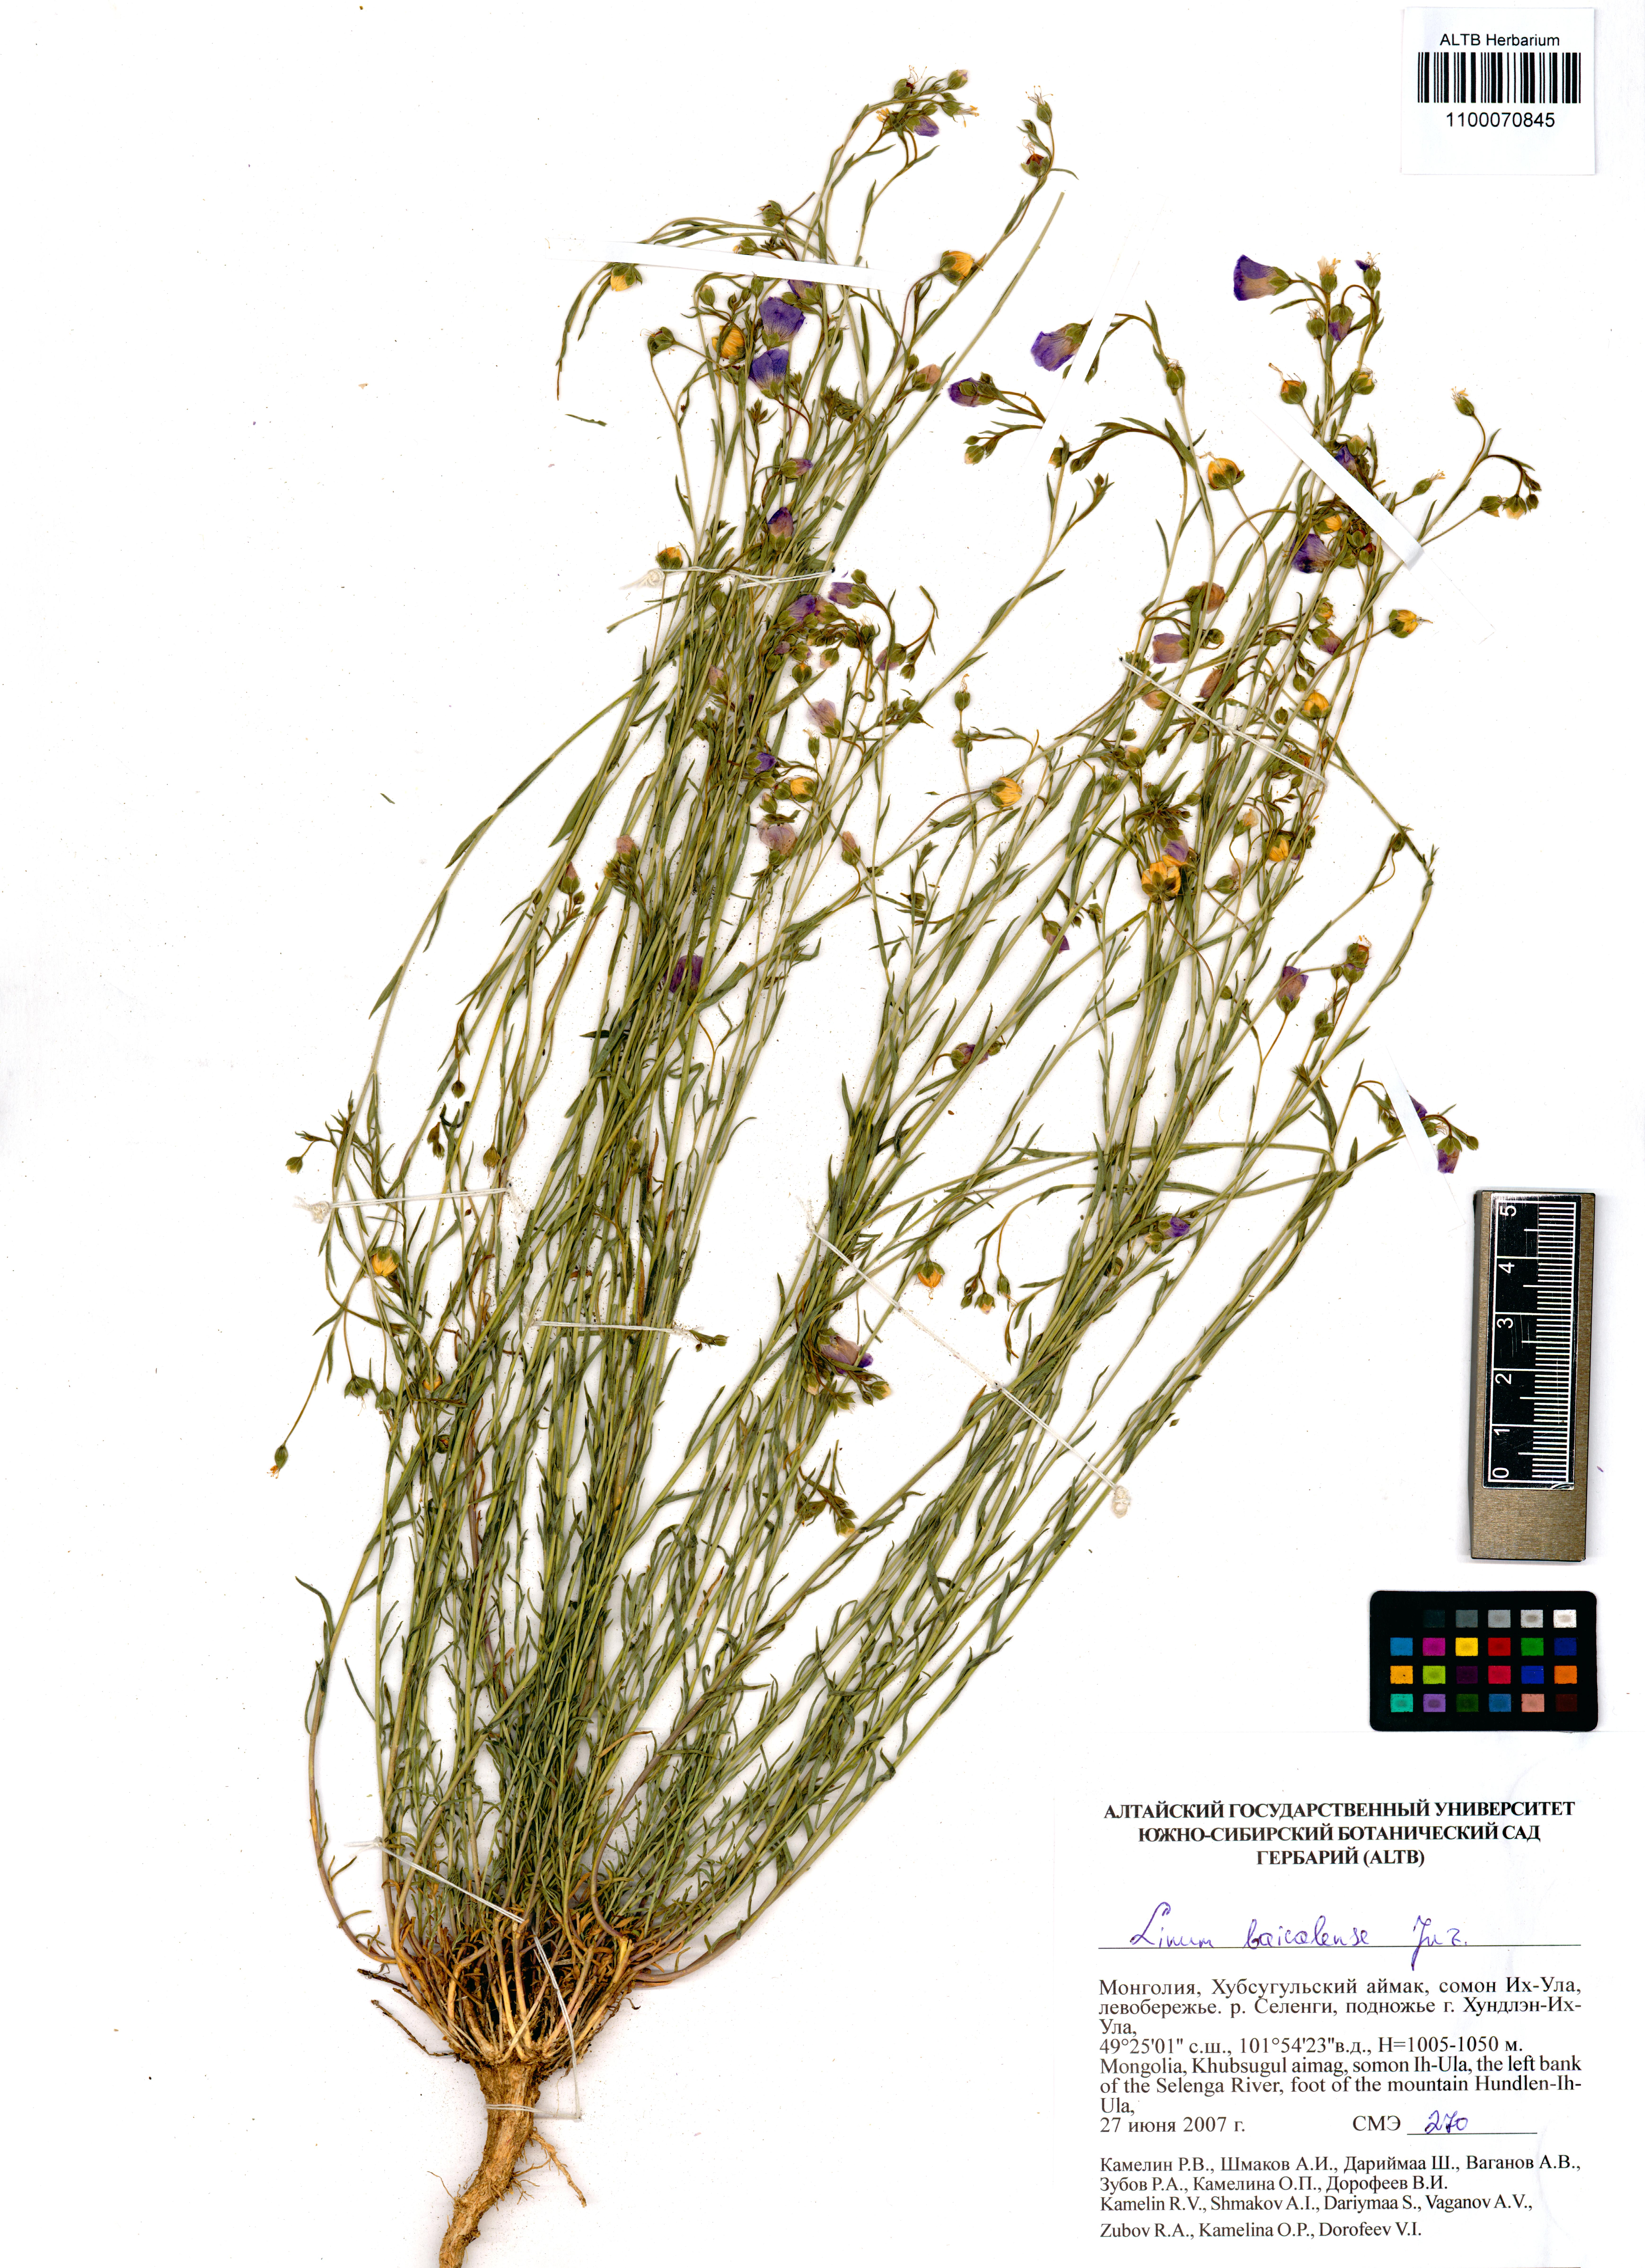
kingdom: Plantae
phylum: Tracheophyta
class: Magnoliopsida
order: Malpighiales
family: Linaceae
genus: Linum
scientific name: Linum nutans
